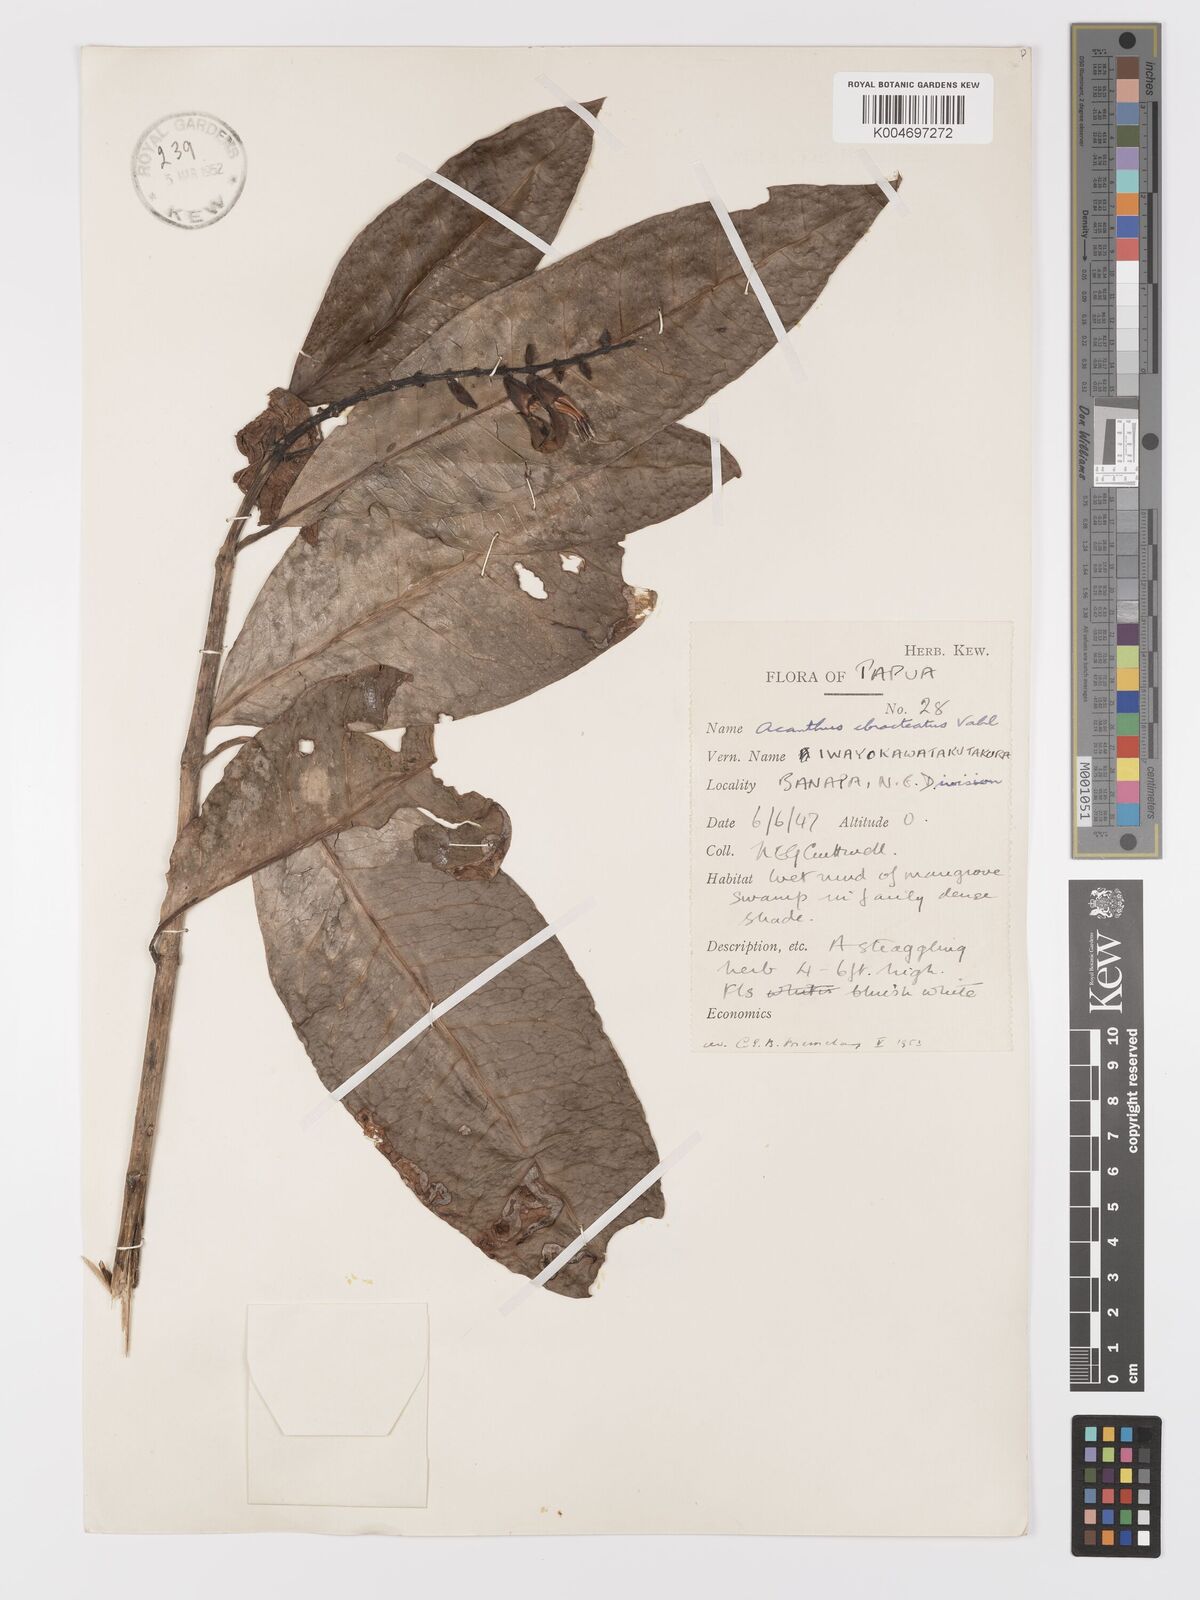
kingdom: Plantae
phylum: Tracheophyta
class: Magnoliopsida
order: Lamiales
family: Acanthaceae
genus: Acanthus
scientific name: Acanthus ebracteatus
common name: Acanthus
